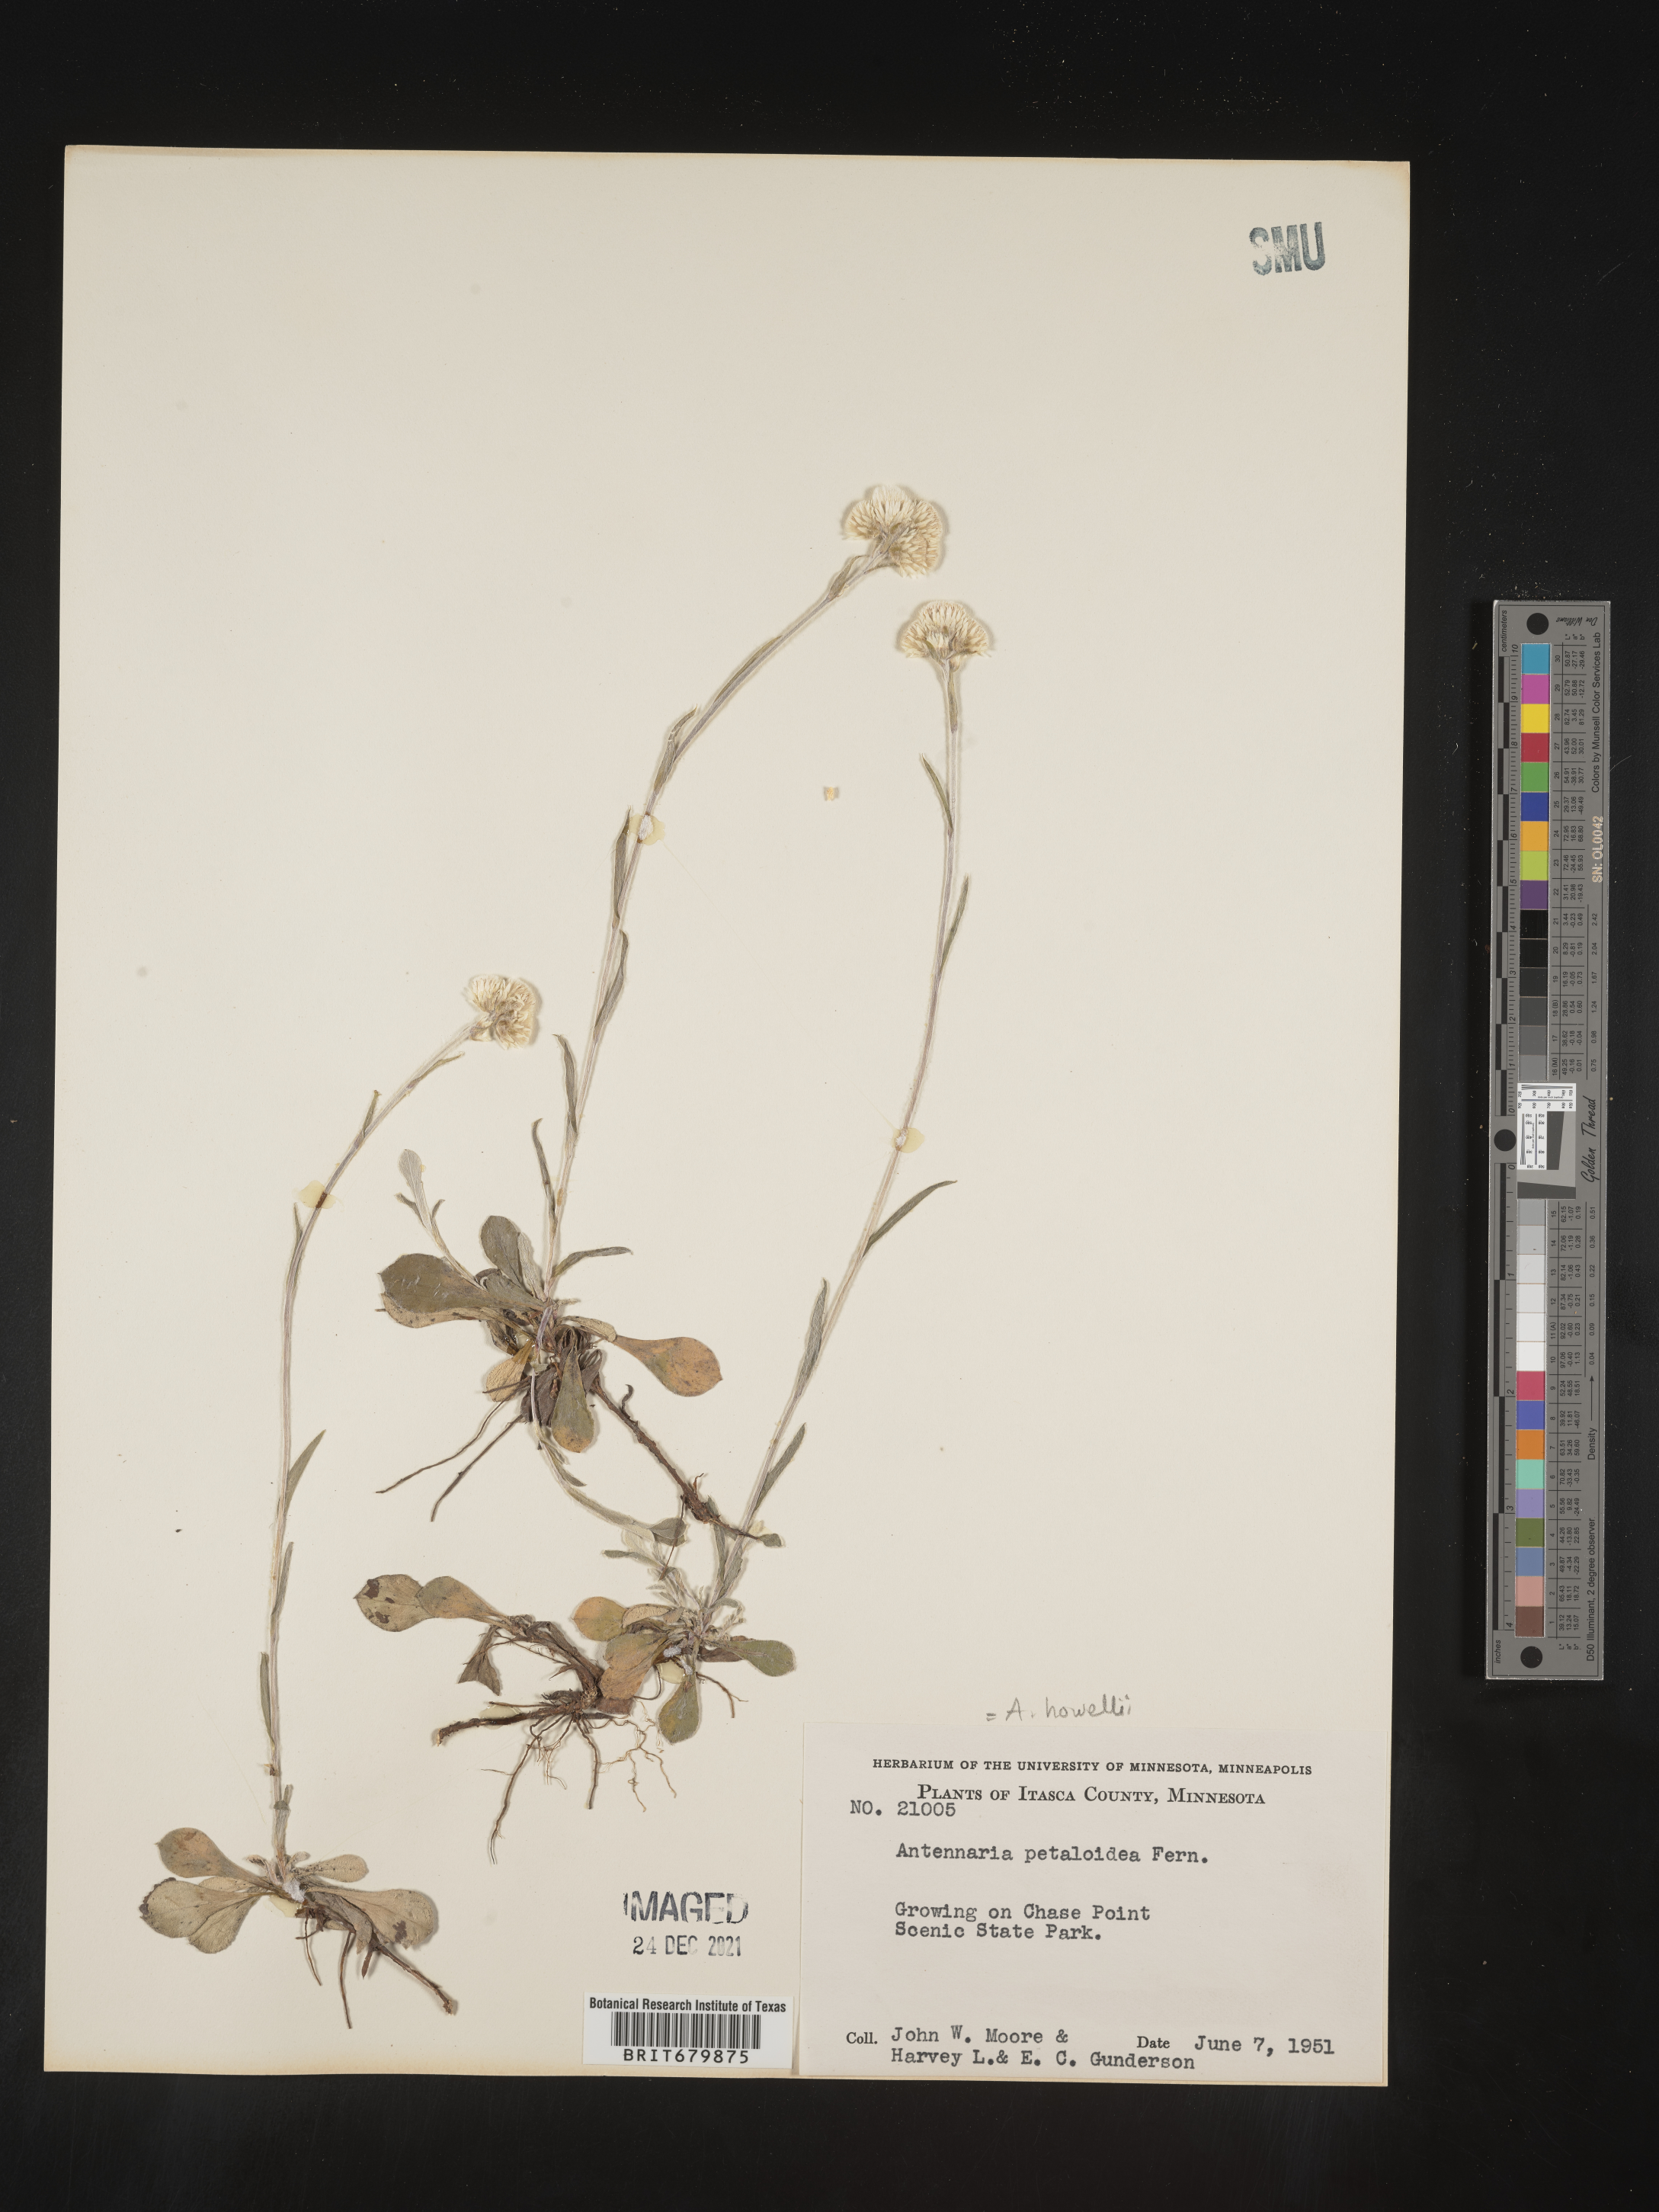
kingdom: Plantae
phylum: Tracheophyta
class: Magnoliopsida
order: Asterales
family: Asteraceae
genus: Antennaria
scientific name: Antennaria howellii
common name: Howell's pussytoes
